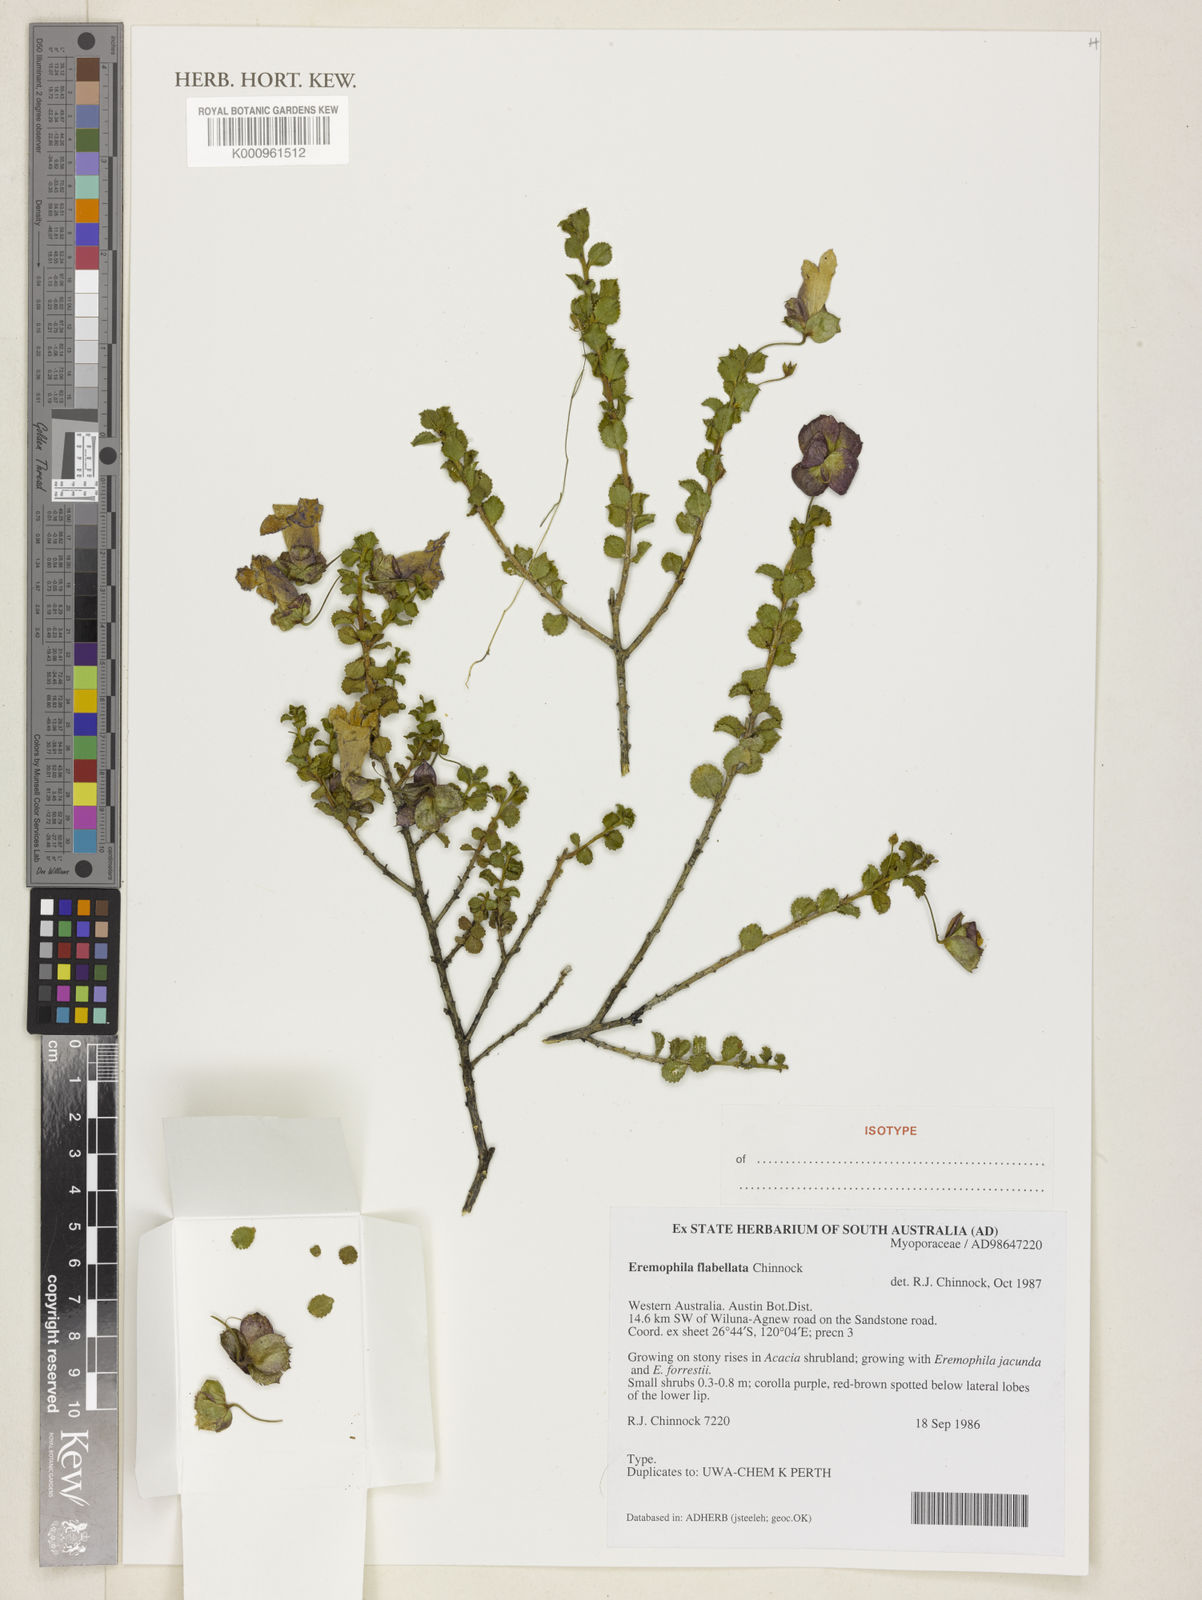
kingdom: Plantae
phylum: Tracheophyta
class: Magnoliopsida
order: Lamiales
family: Scrophulariaceae
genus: Eremophila
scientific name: Eremophila flabellata
